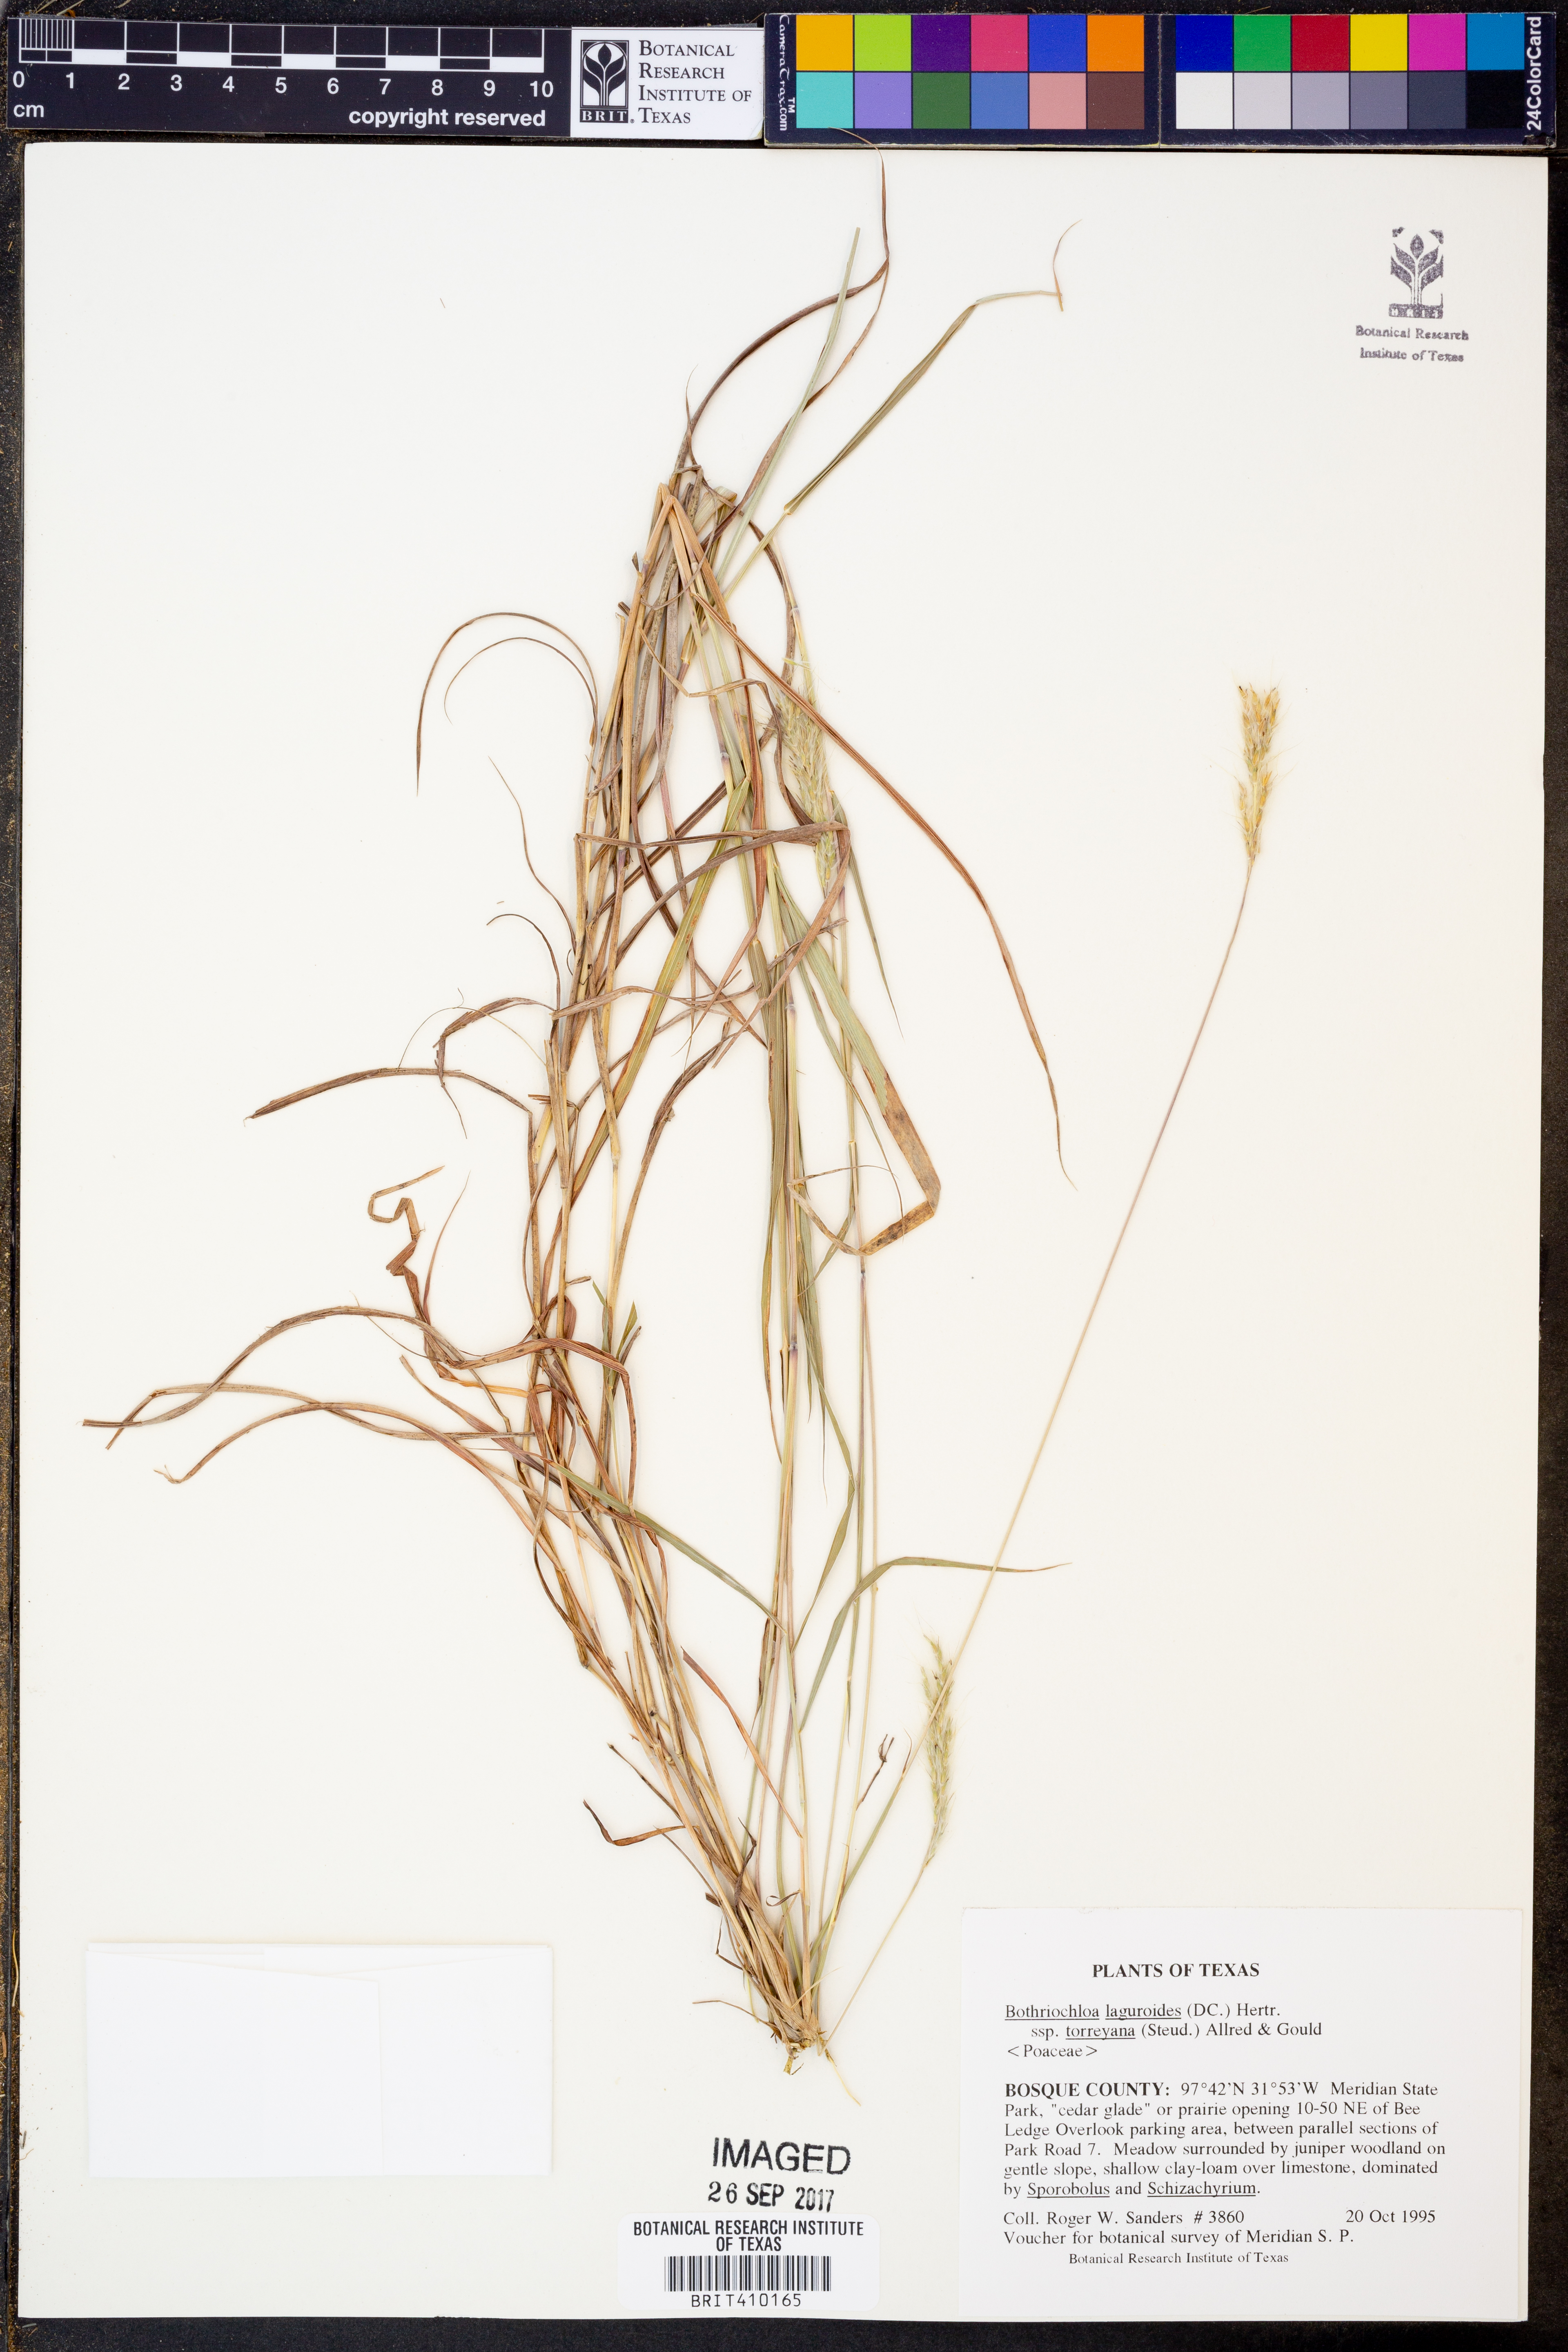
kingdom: Plantae
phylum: Tracheophyta
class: Liliopsida
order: Poales
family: Poaceae
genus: Bothriochloa
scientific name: Bothriochloa torreyana
